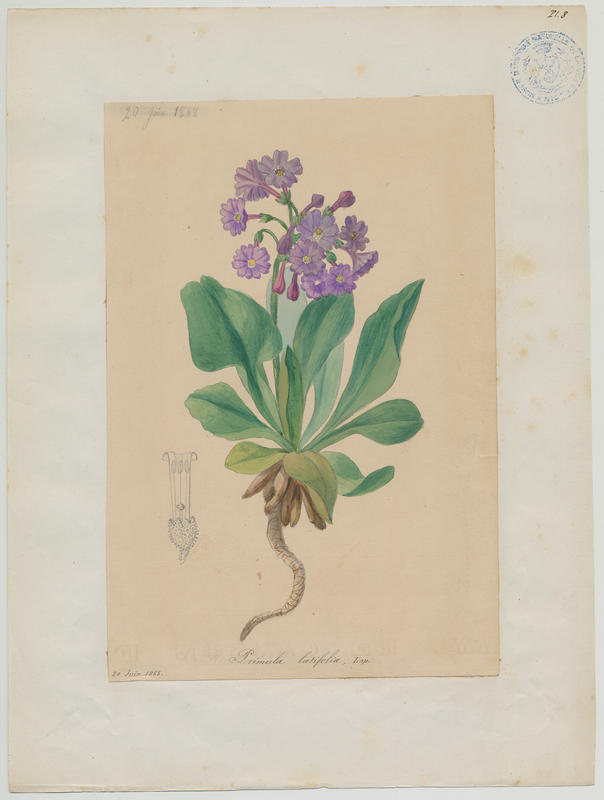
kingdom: Plantae
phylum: Tracheophyta
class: Magnoliopsida
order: Ericales
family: Primulaceae
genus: Primula
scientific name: Primula latifolia
